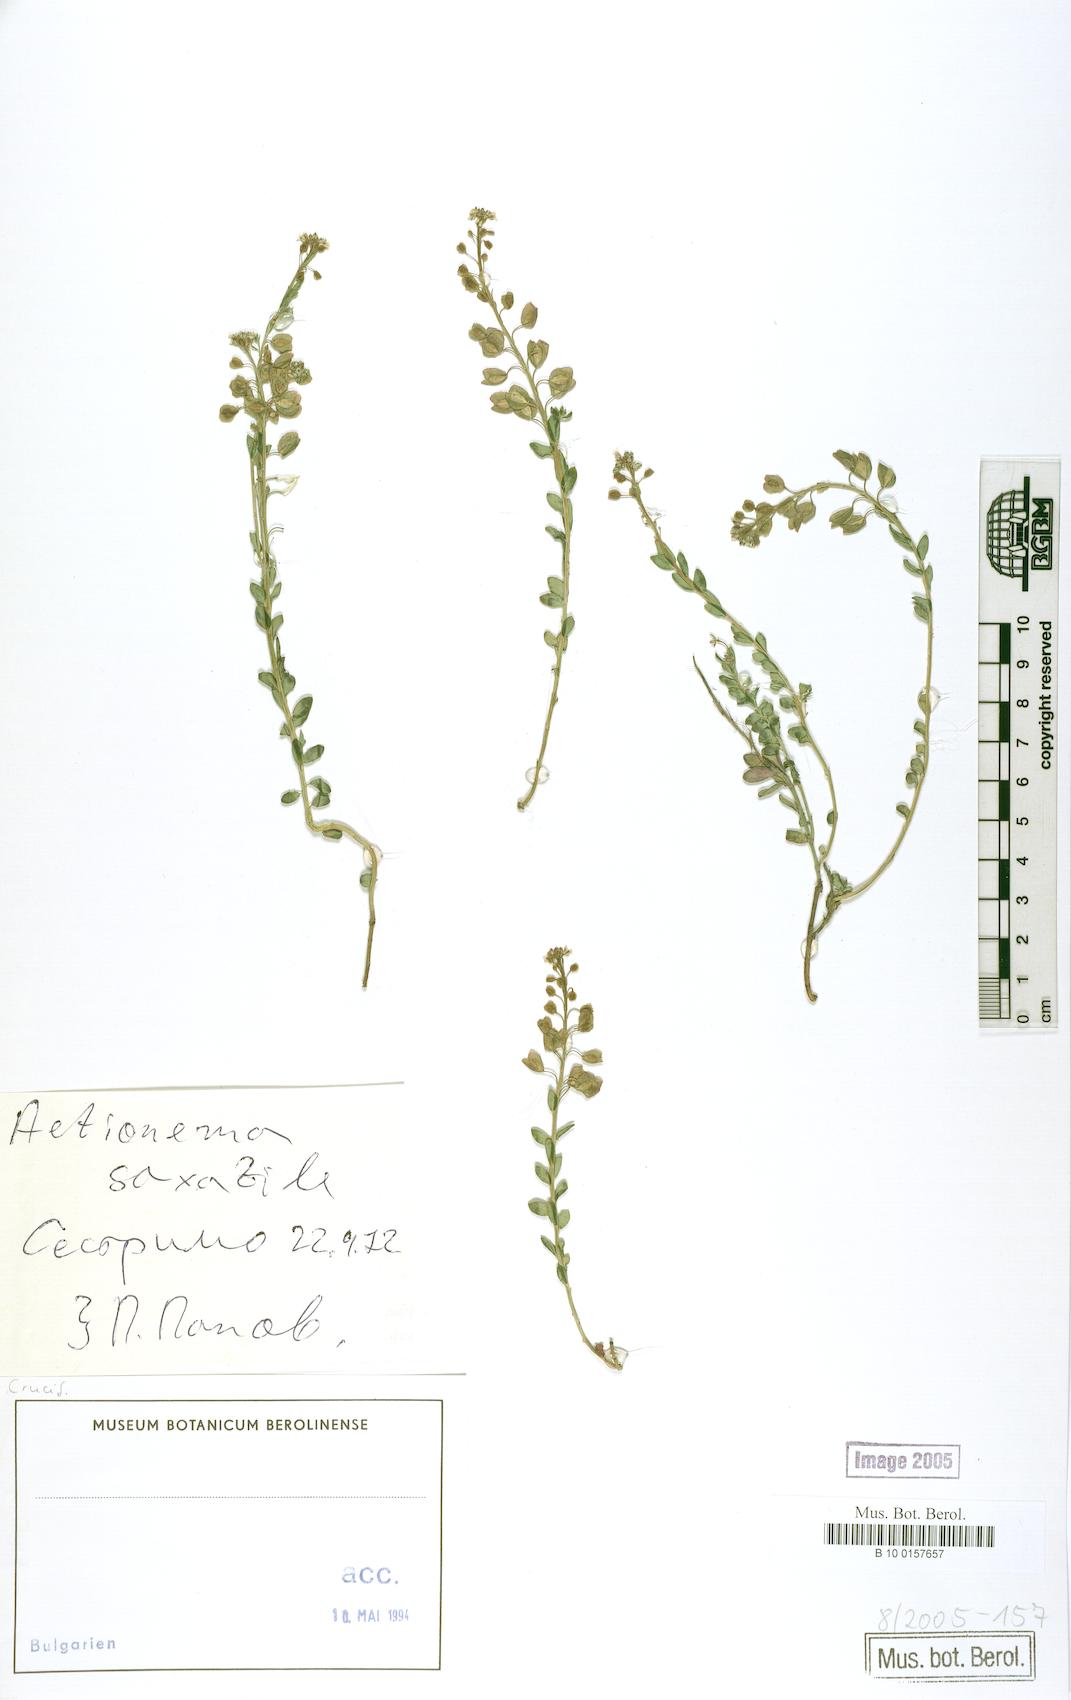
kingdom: Plantae
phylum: Tracheophyta
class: Magnoliopsida
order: Brassicales
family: Brassicaceae
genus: Aethionema
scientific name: Aethionema saxatile
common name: Burnt candytuft
